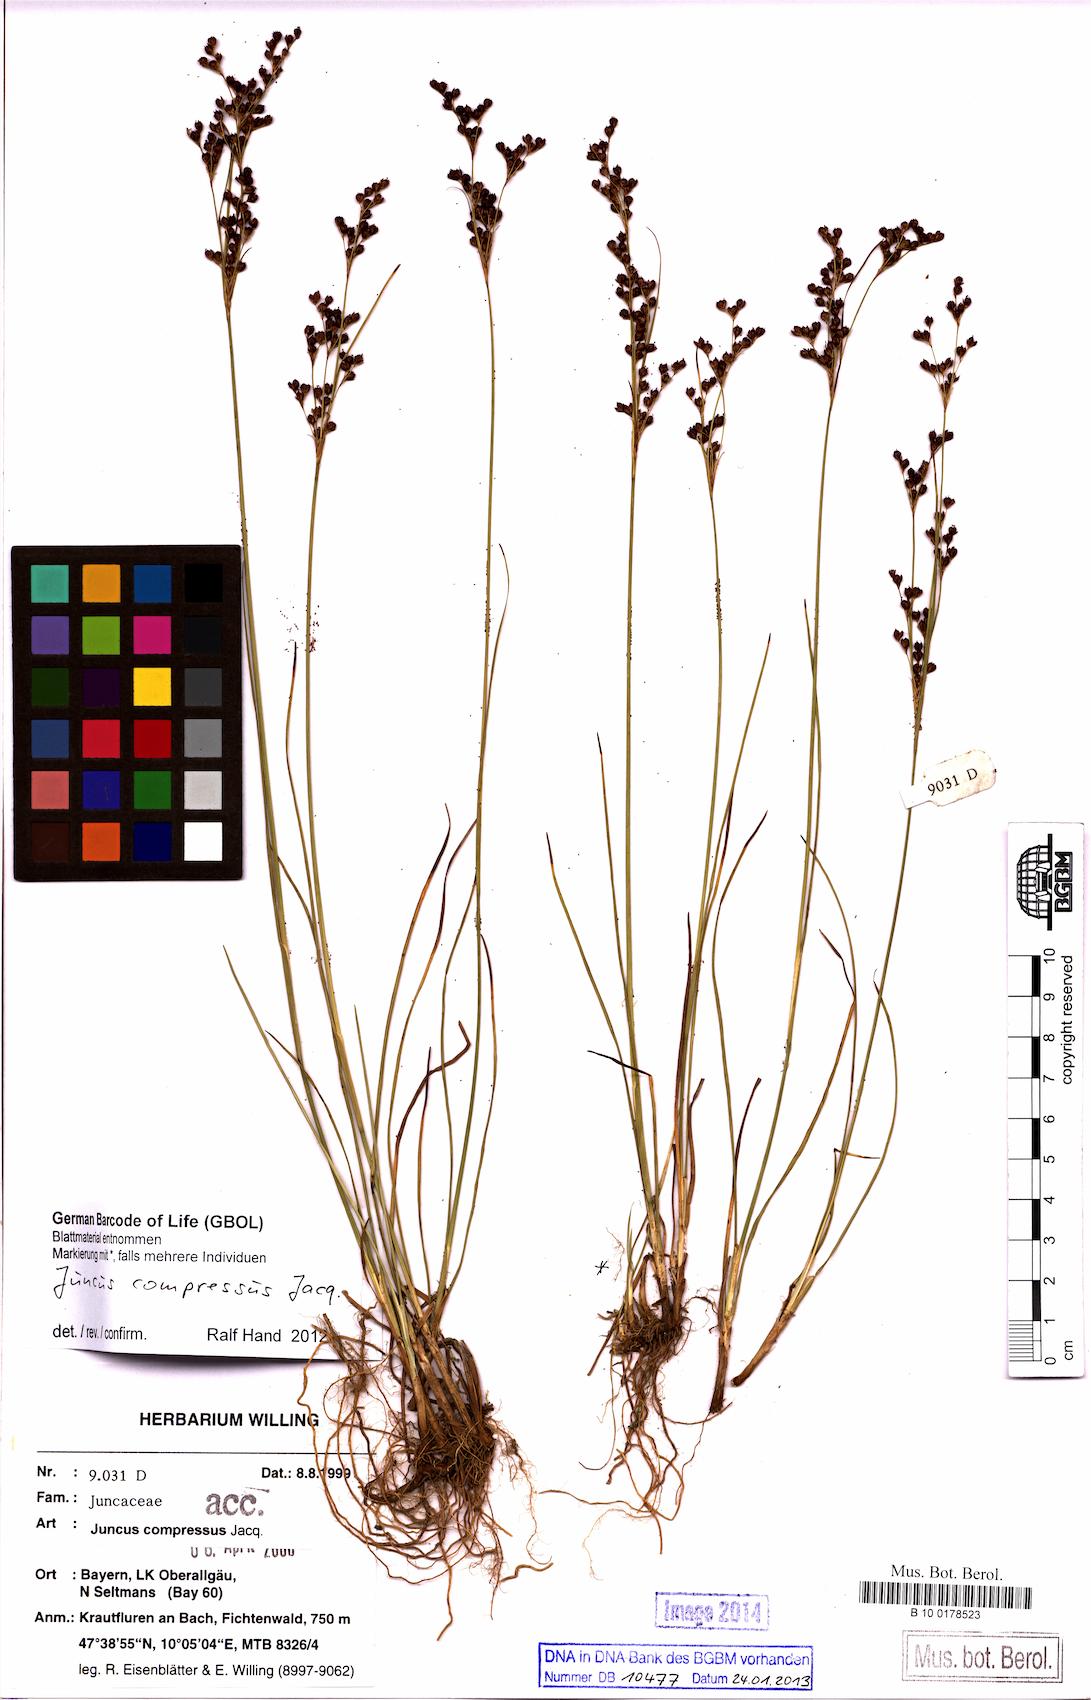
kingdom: Plantae
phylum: Tracheophyta
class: Liliopsida
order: Poales
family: Juncaceae
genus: Juncus
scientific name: Juncus compressus
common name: Round-fruited rush
